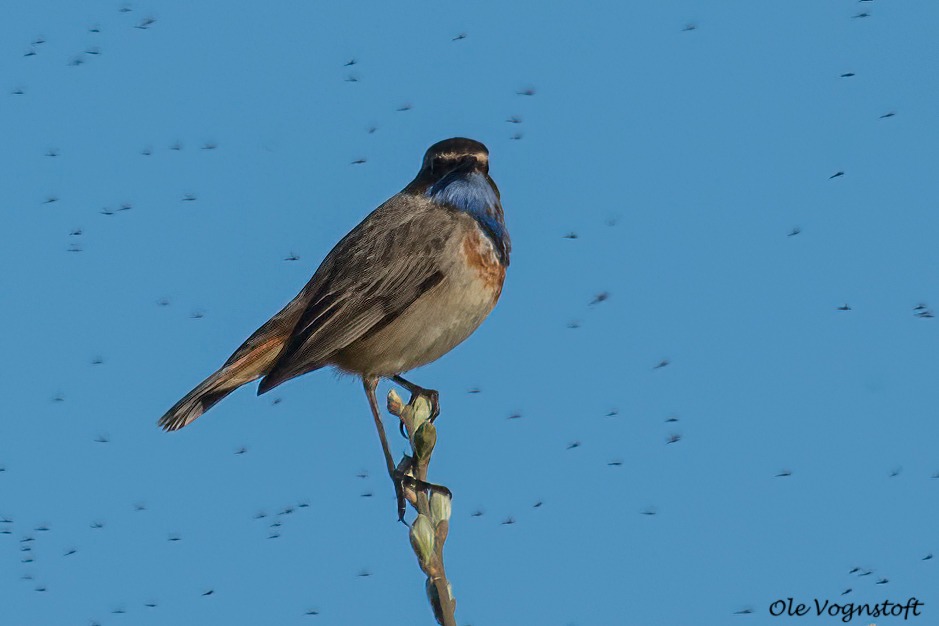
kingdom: Animalia
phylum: Chordata
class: Aves
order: Passeriformes
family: Muscicapidae
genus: Luscinia
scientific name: Luscinia svecica
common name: Blåhals
